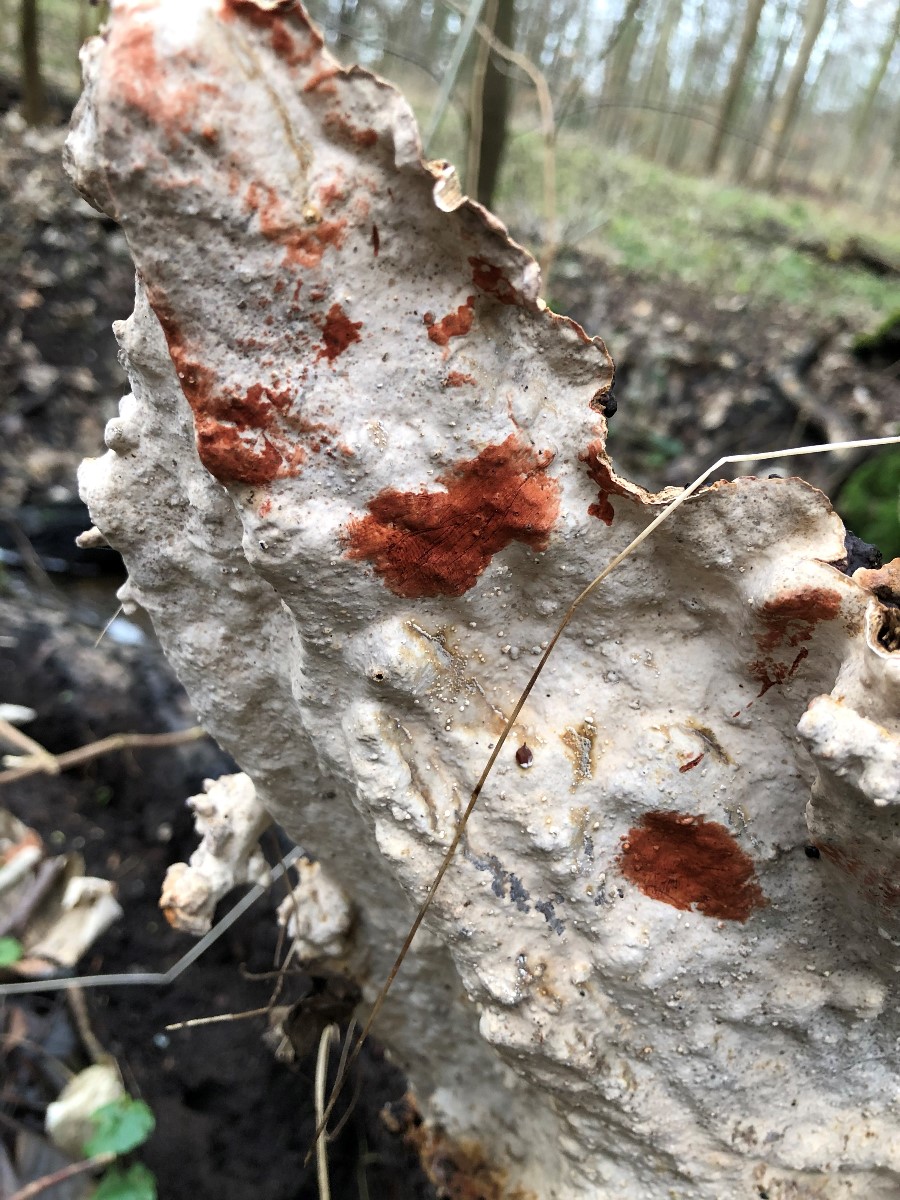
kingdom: Fungi
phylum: Basidiomycota
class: Agaricomycetes
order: Russulales
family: Stereaceae
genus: Stereum
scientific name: Stereum rugosum
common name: rynket lædersvamp
